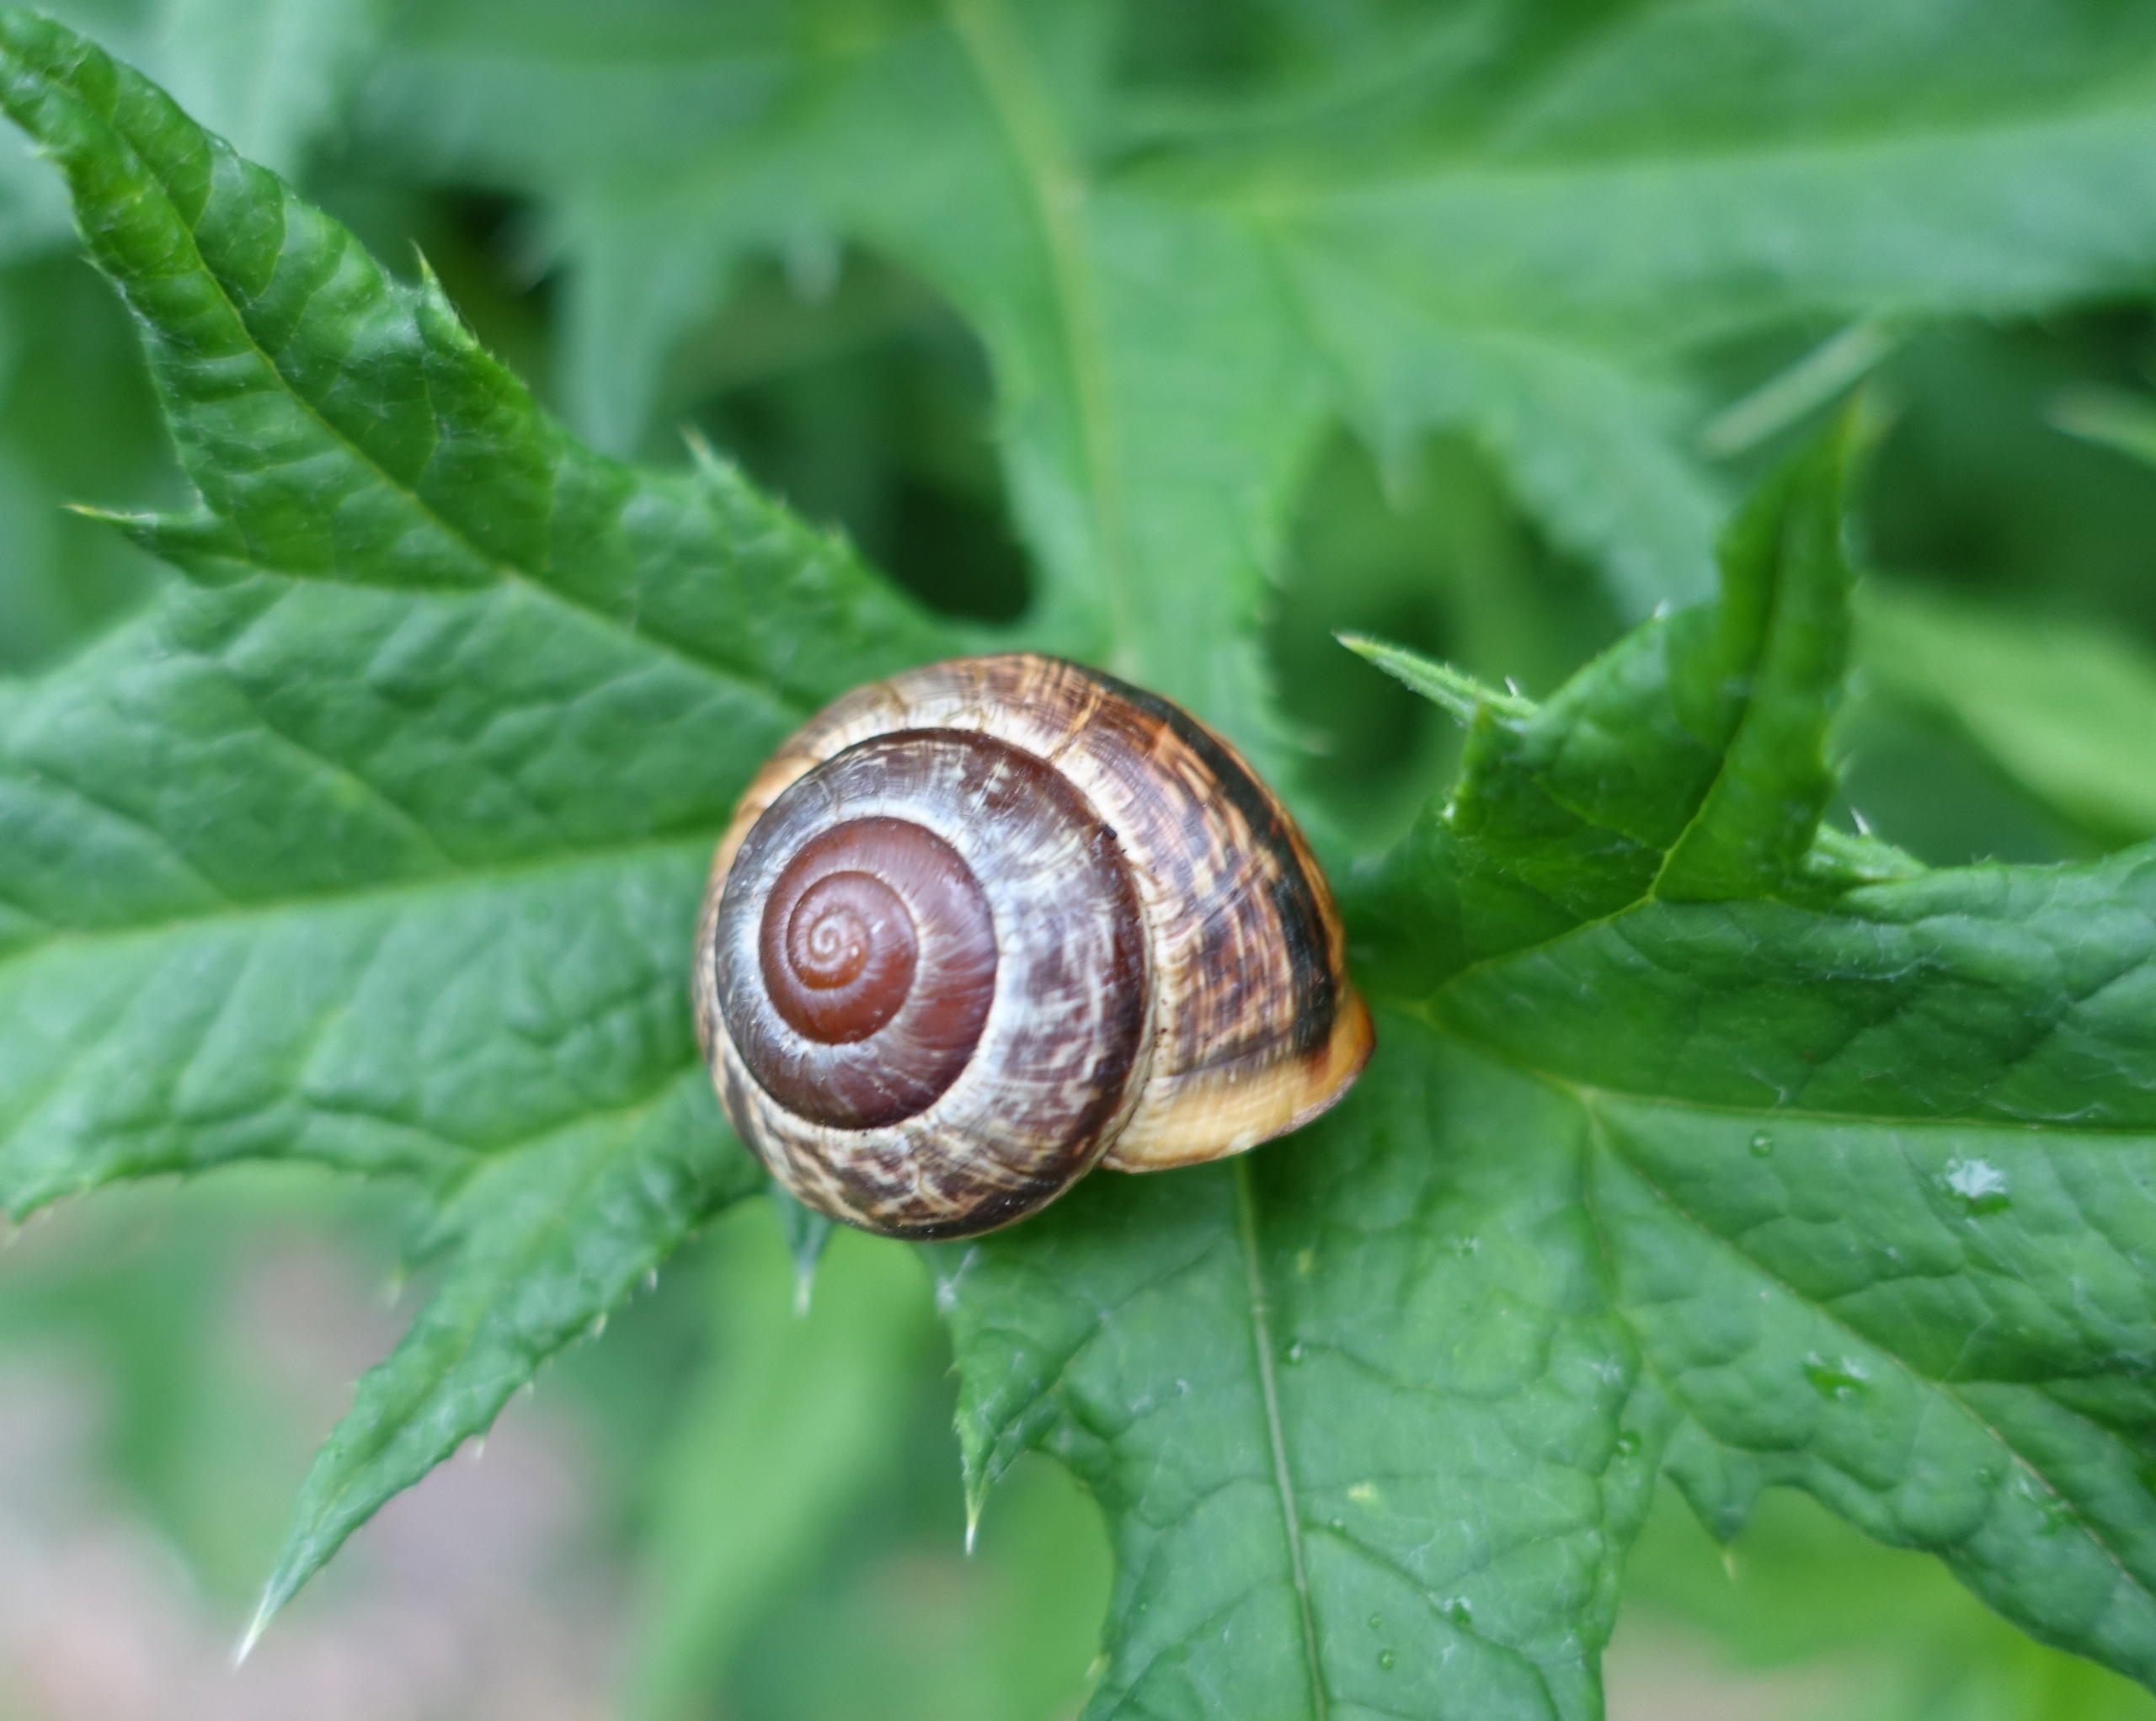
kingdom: Animalia
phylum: Mollusca
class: Gastropoda
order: Stylommatophora
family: Helicidae
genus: Arianta
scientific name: Arianta arbustorum
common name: Kratsnegl
